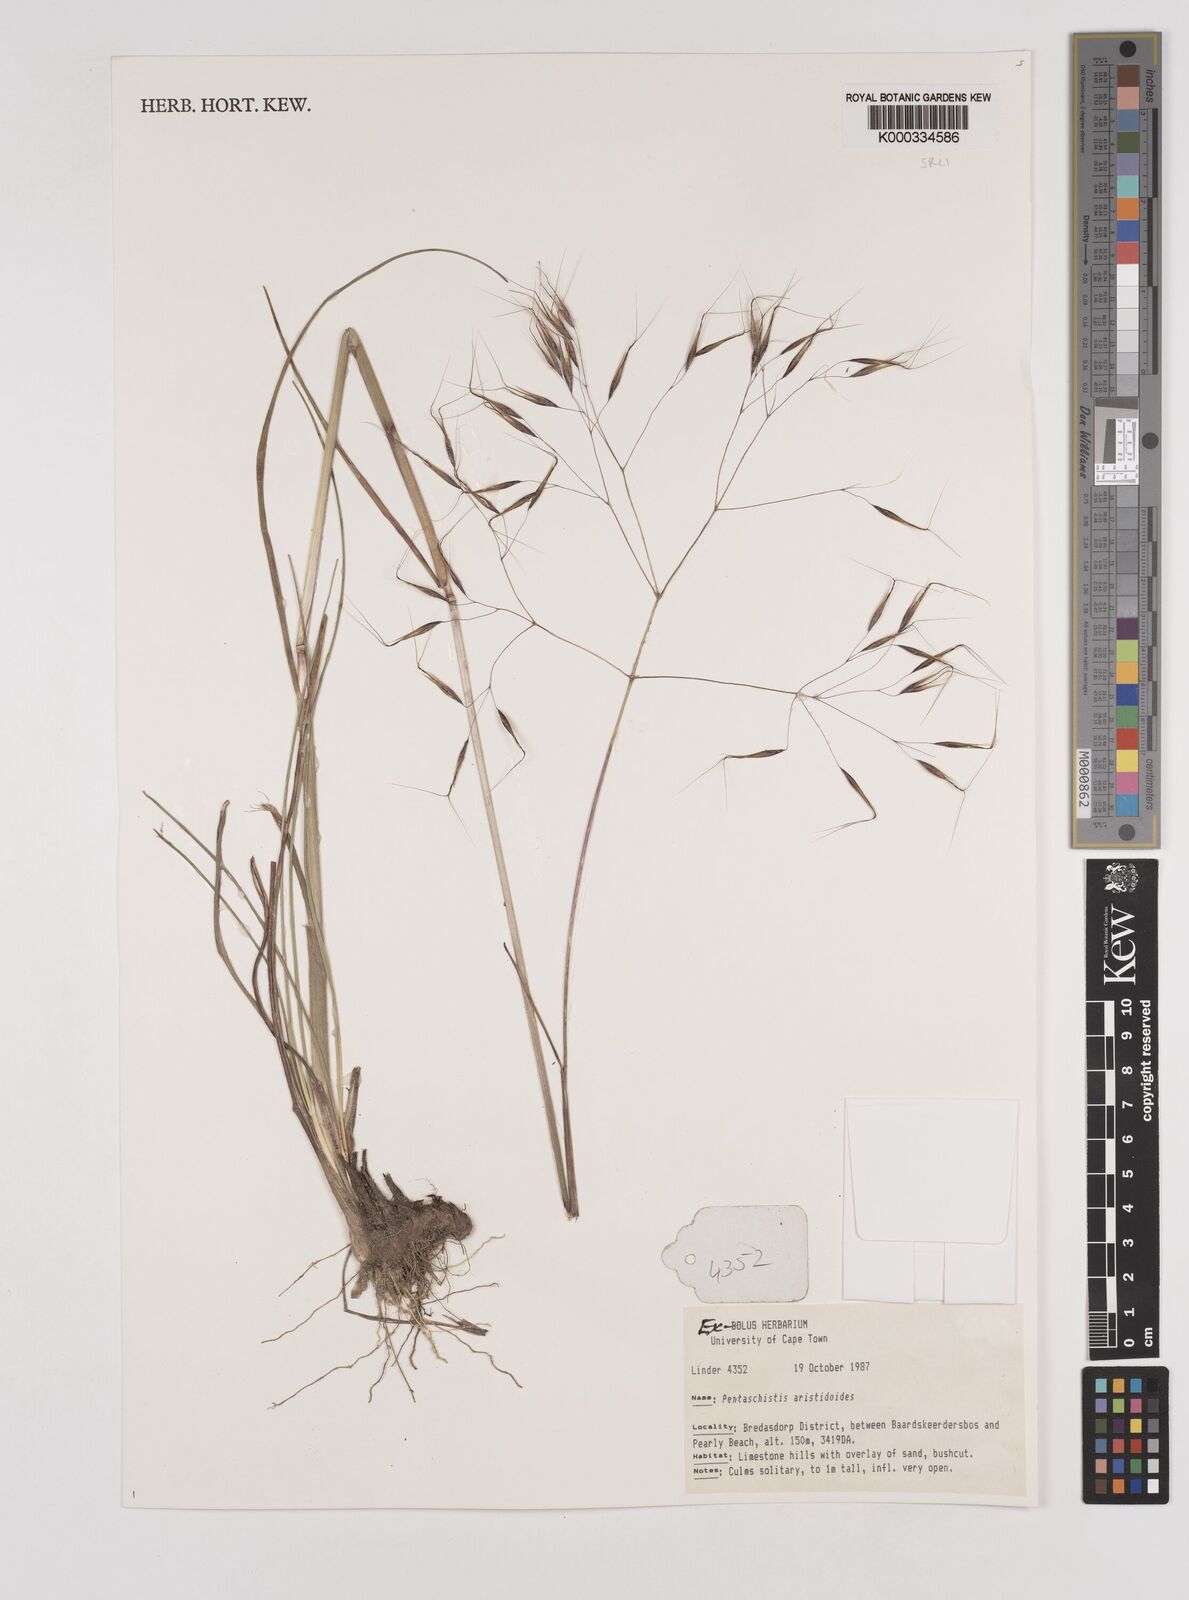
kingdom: Plantae
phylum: Tracheophyta
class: Liliopsida
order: Poales
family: Poaceae
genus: Pentameris
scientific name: Pentameris aristidoides
